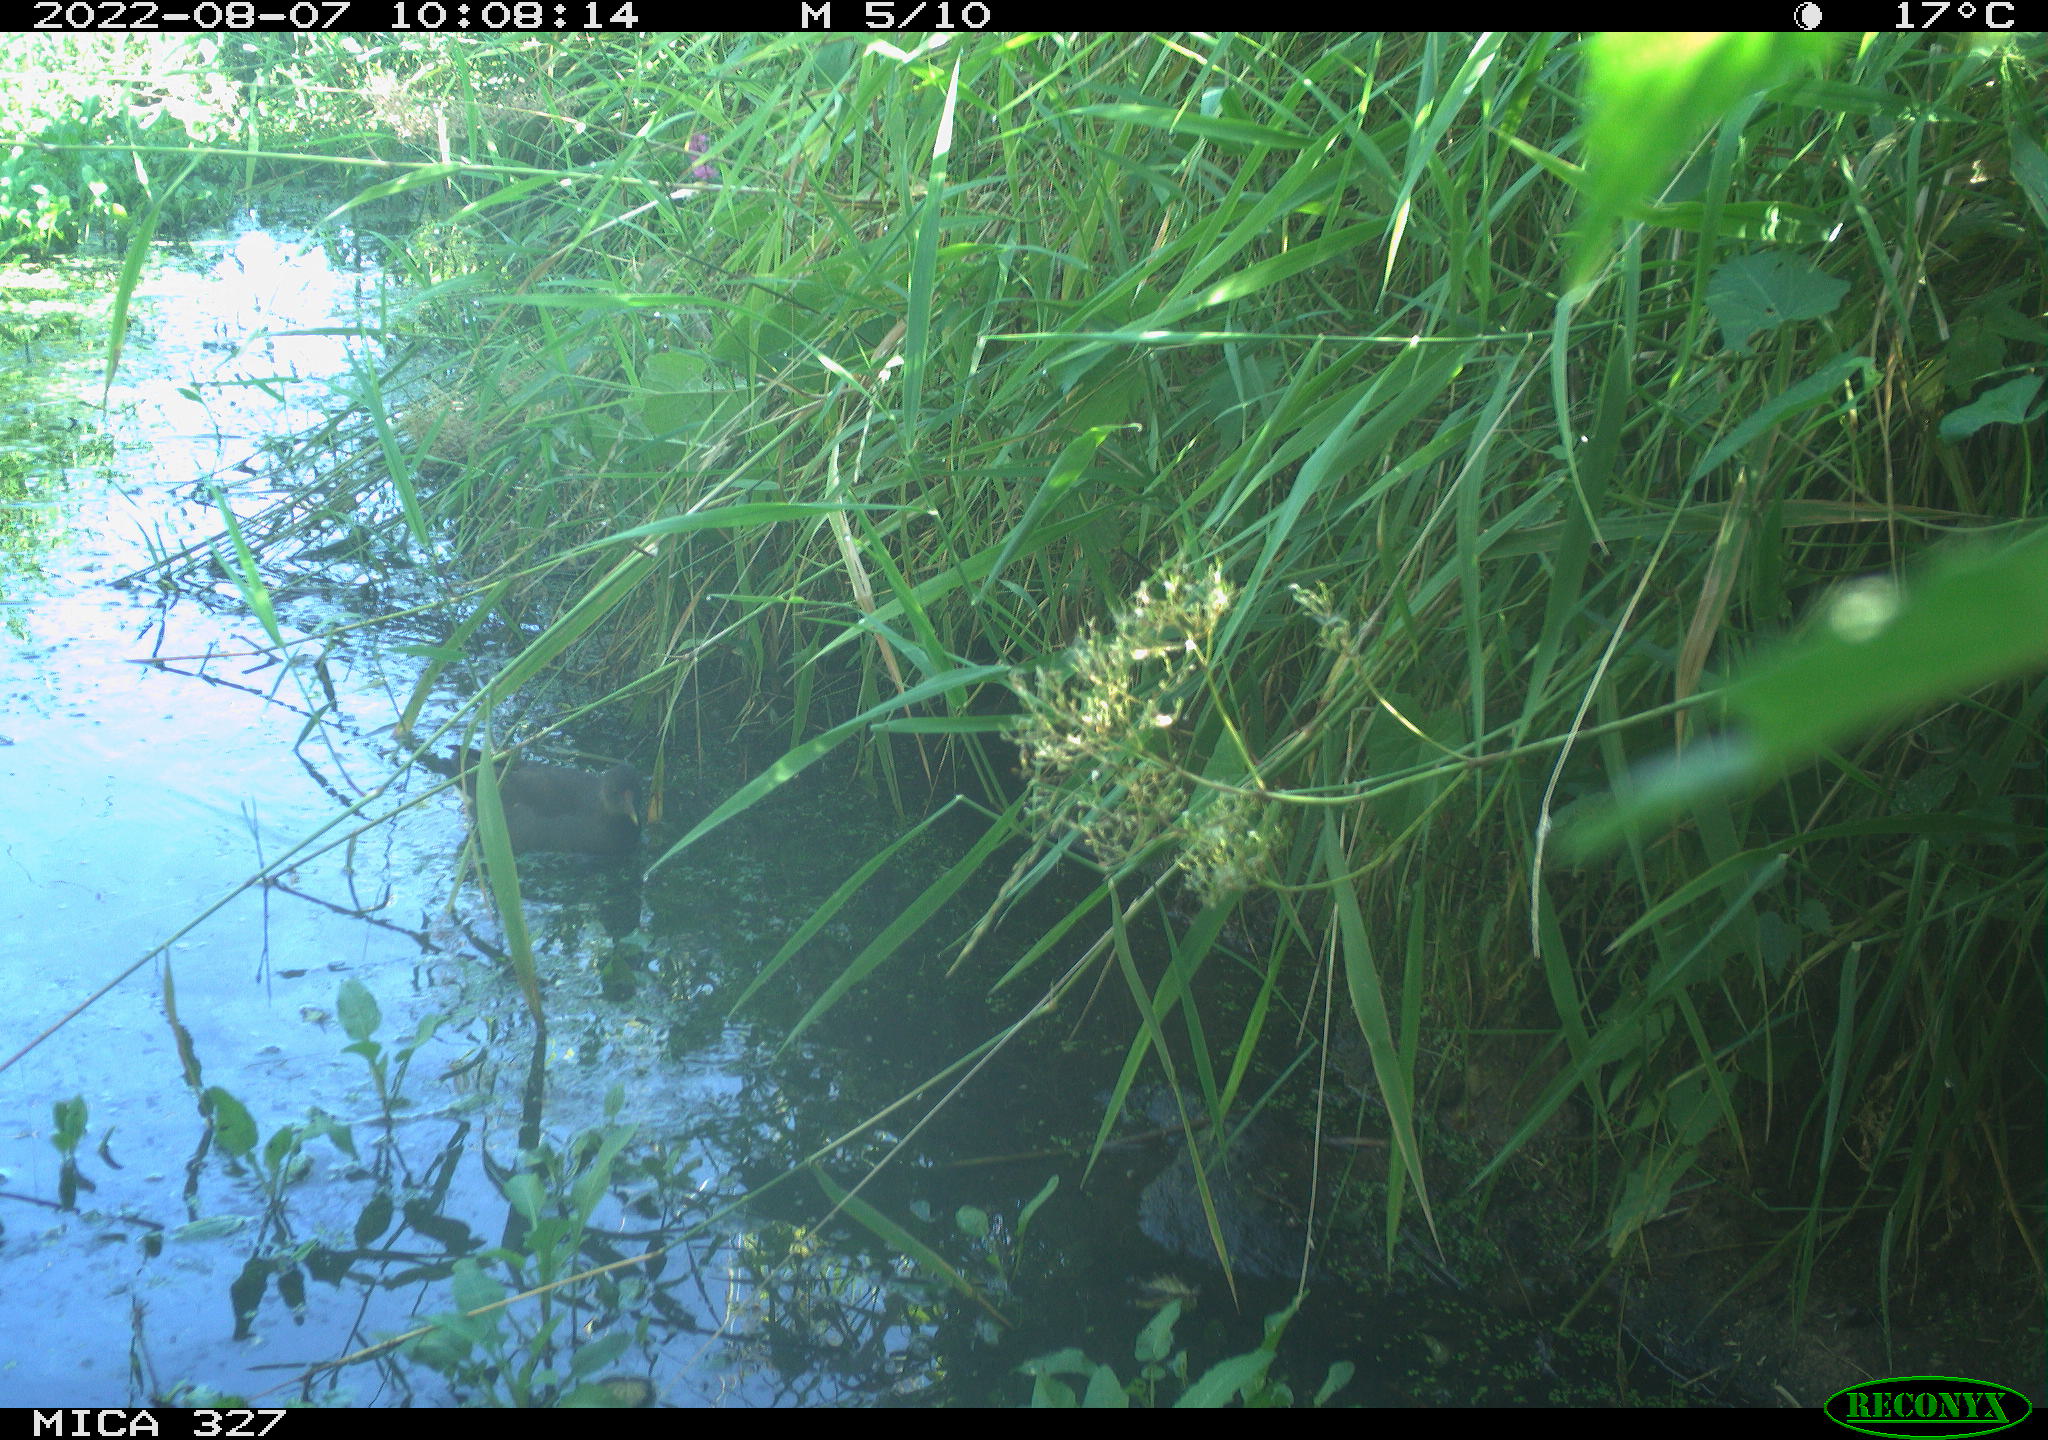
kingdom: Animalia
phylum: Chordata
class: Aves
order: Gruiformes
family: Rallidae
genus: Gallinula
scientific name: Gallinula chloropus
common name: Common moorhen
